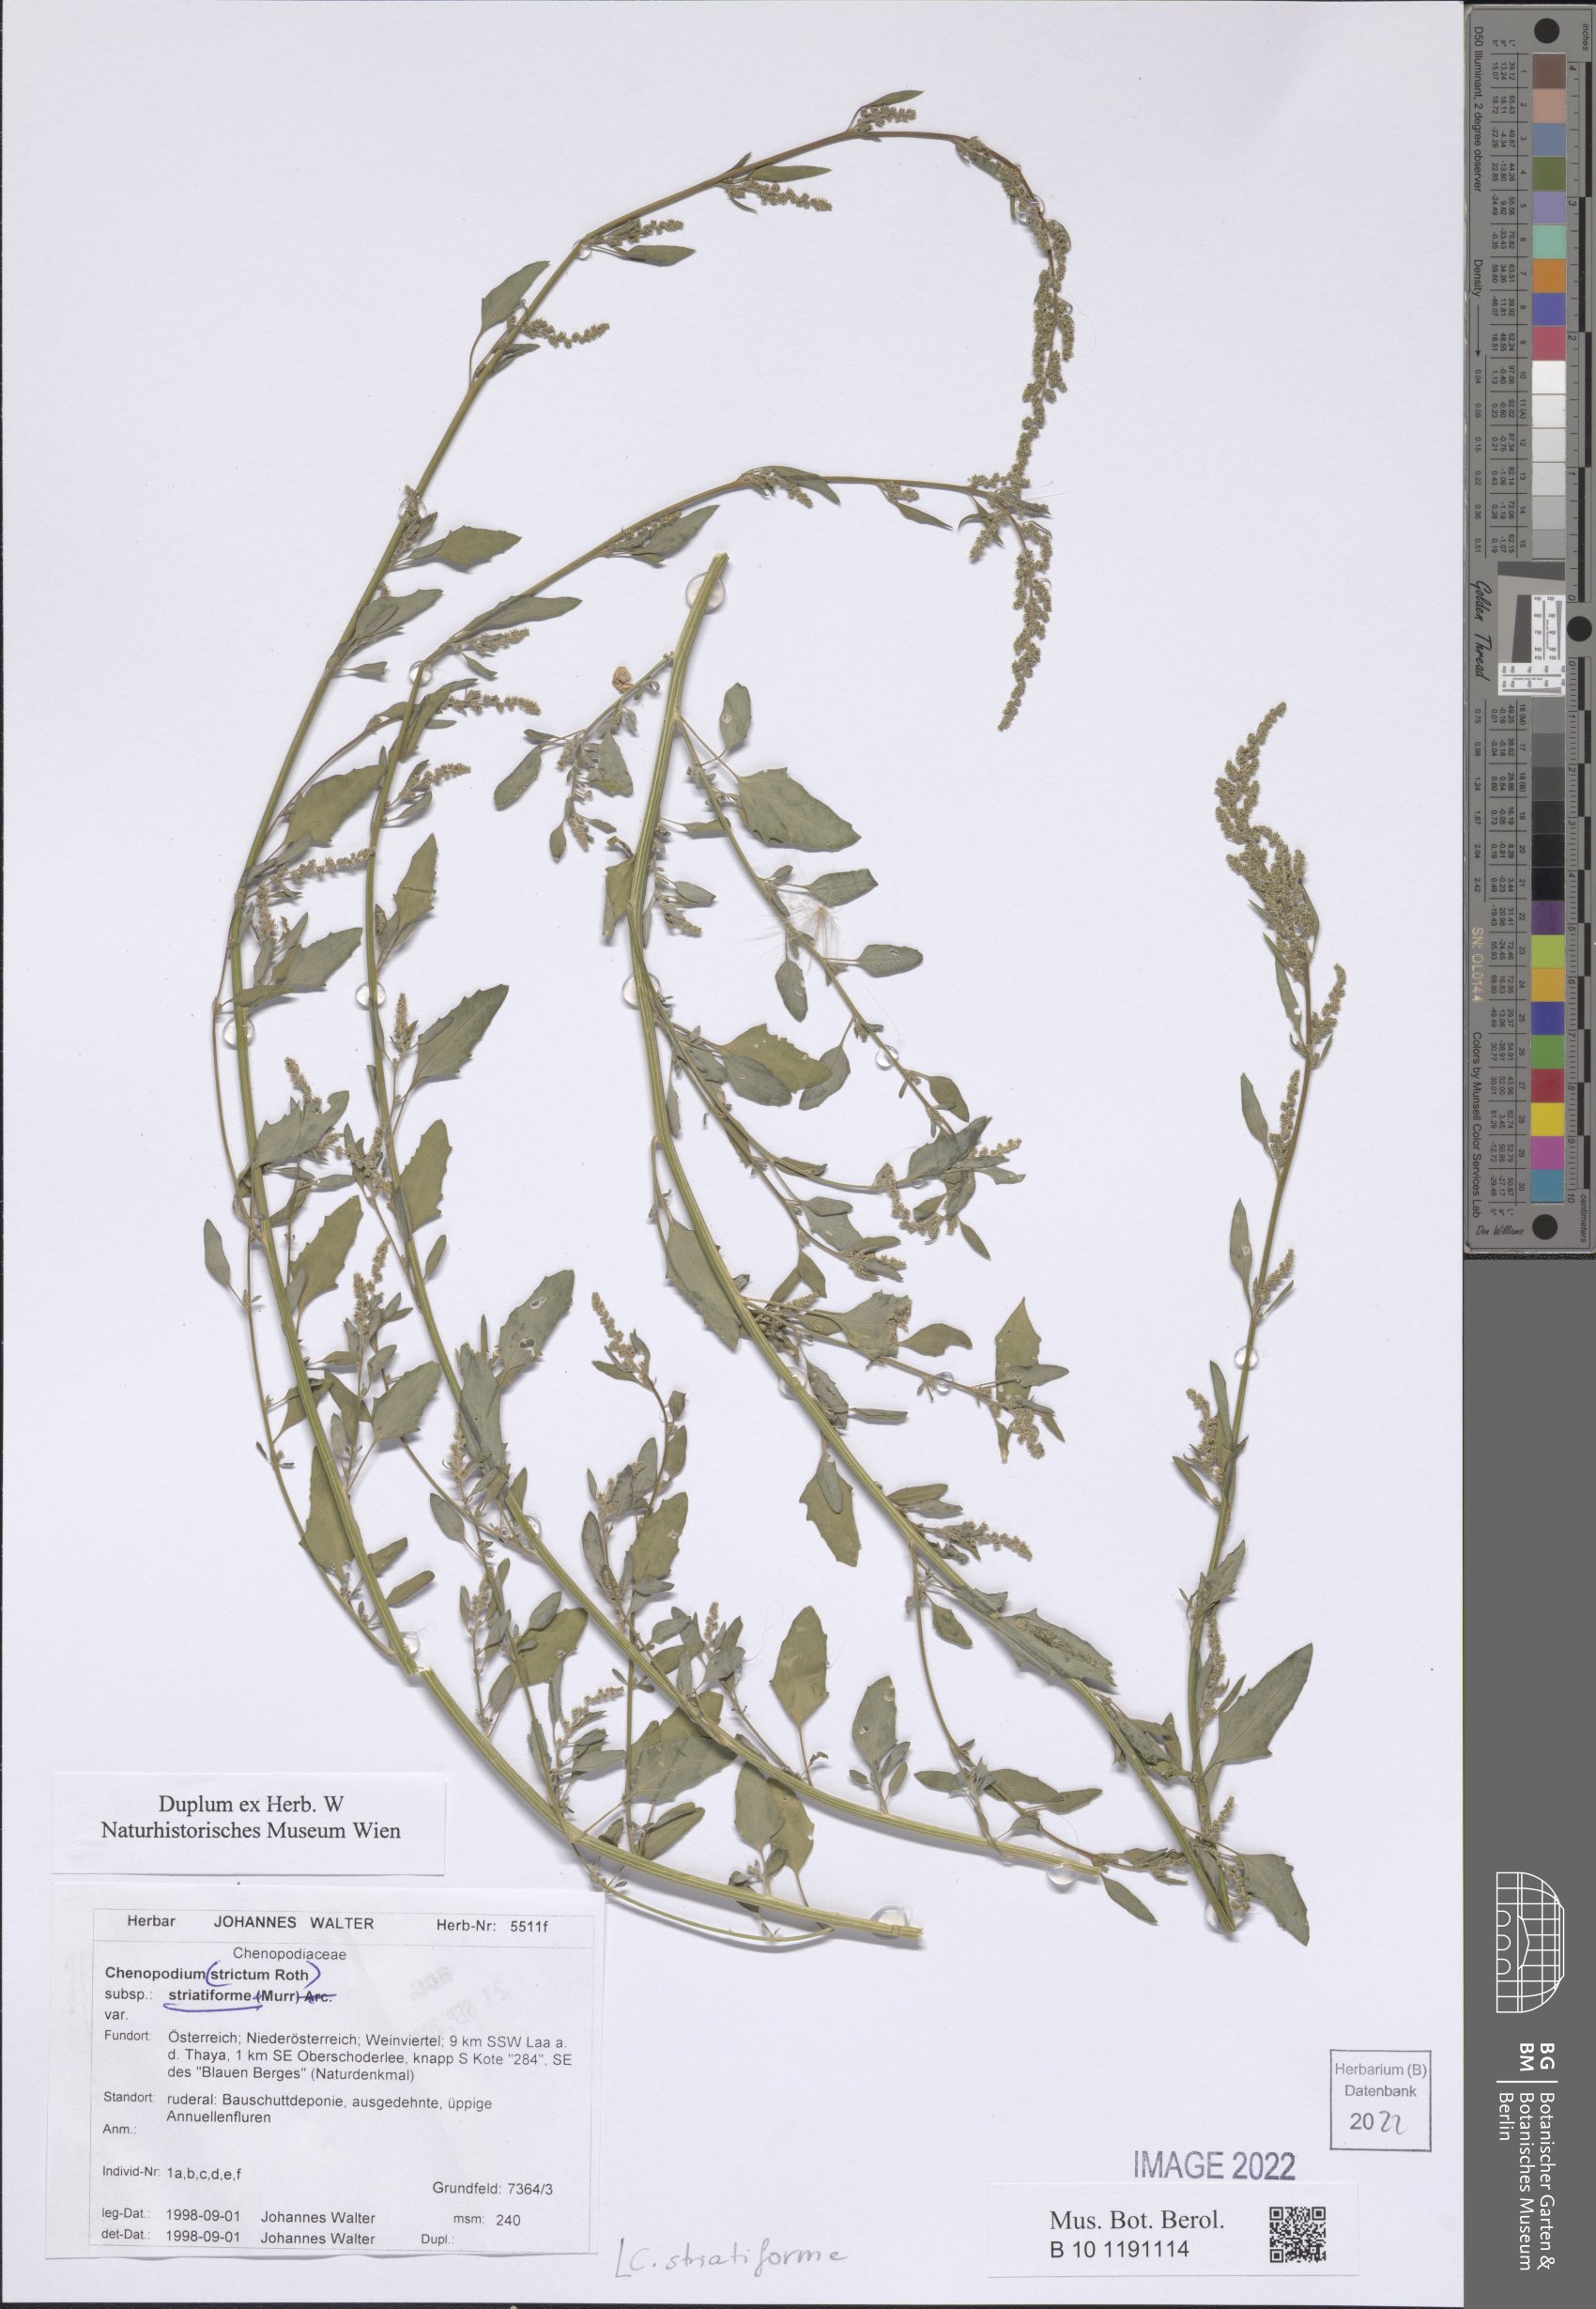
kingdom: Plantae
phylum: Tracheophyta
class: Magnoliopsida
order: Caryophyllales
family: Amaranthaceae
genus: Chenopodium
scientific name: Chenopodium striatiforme
